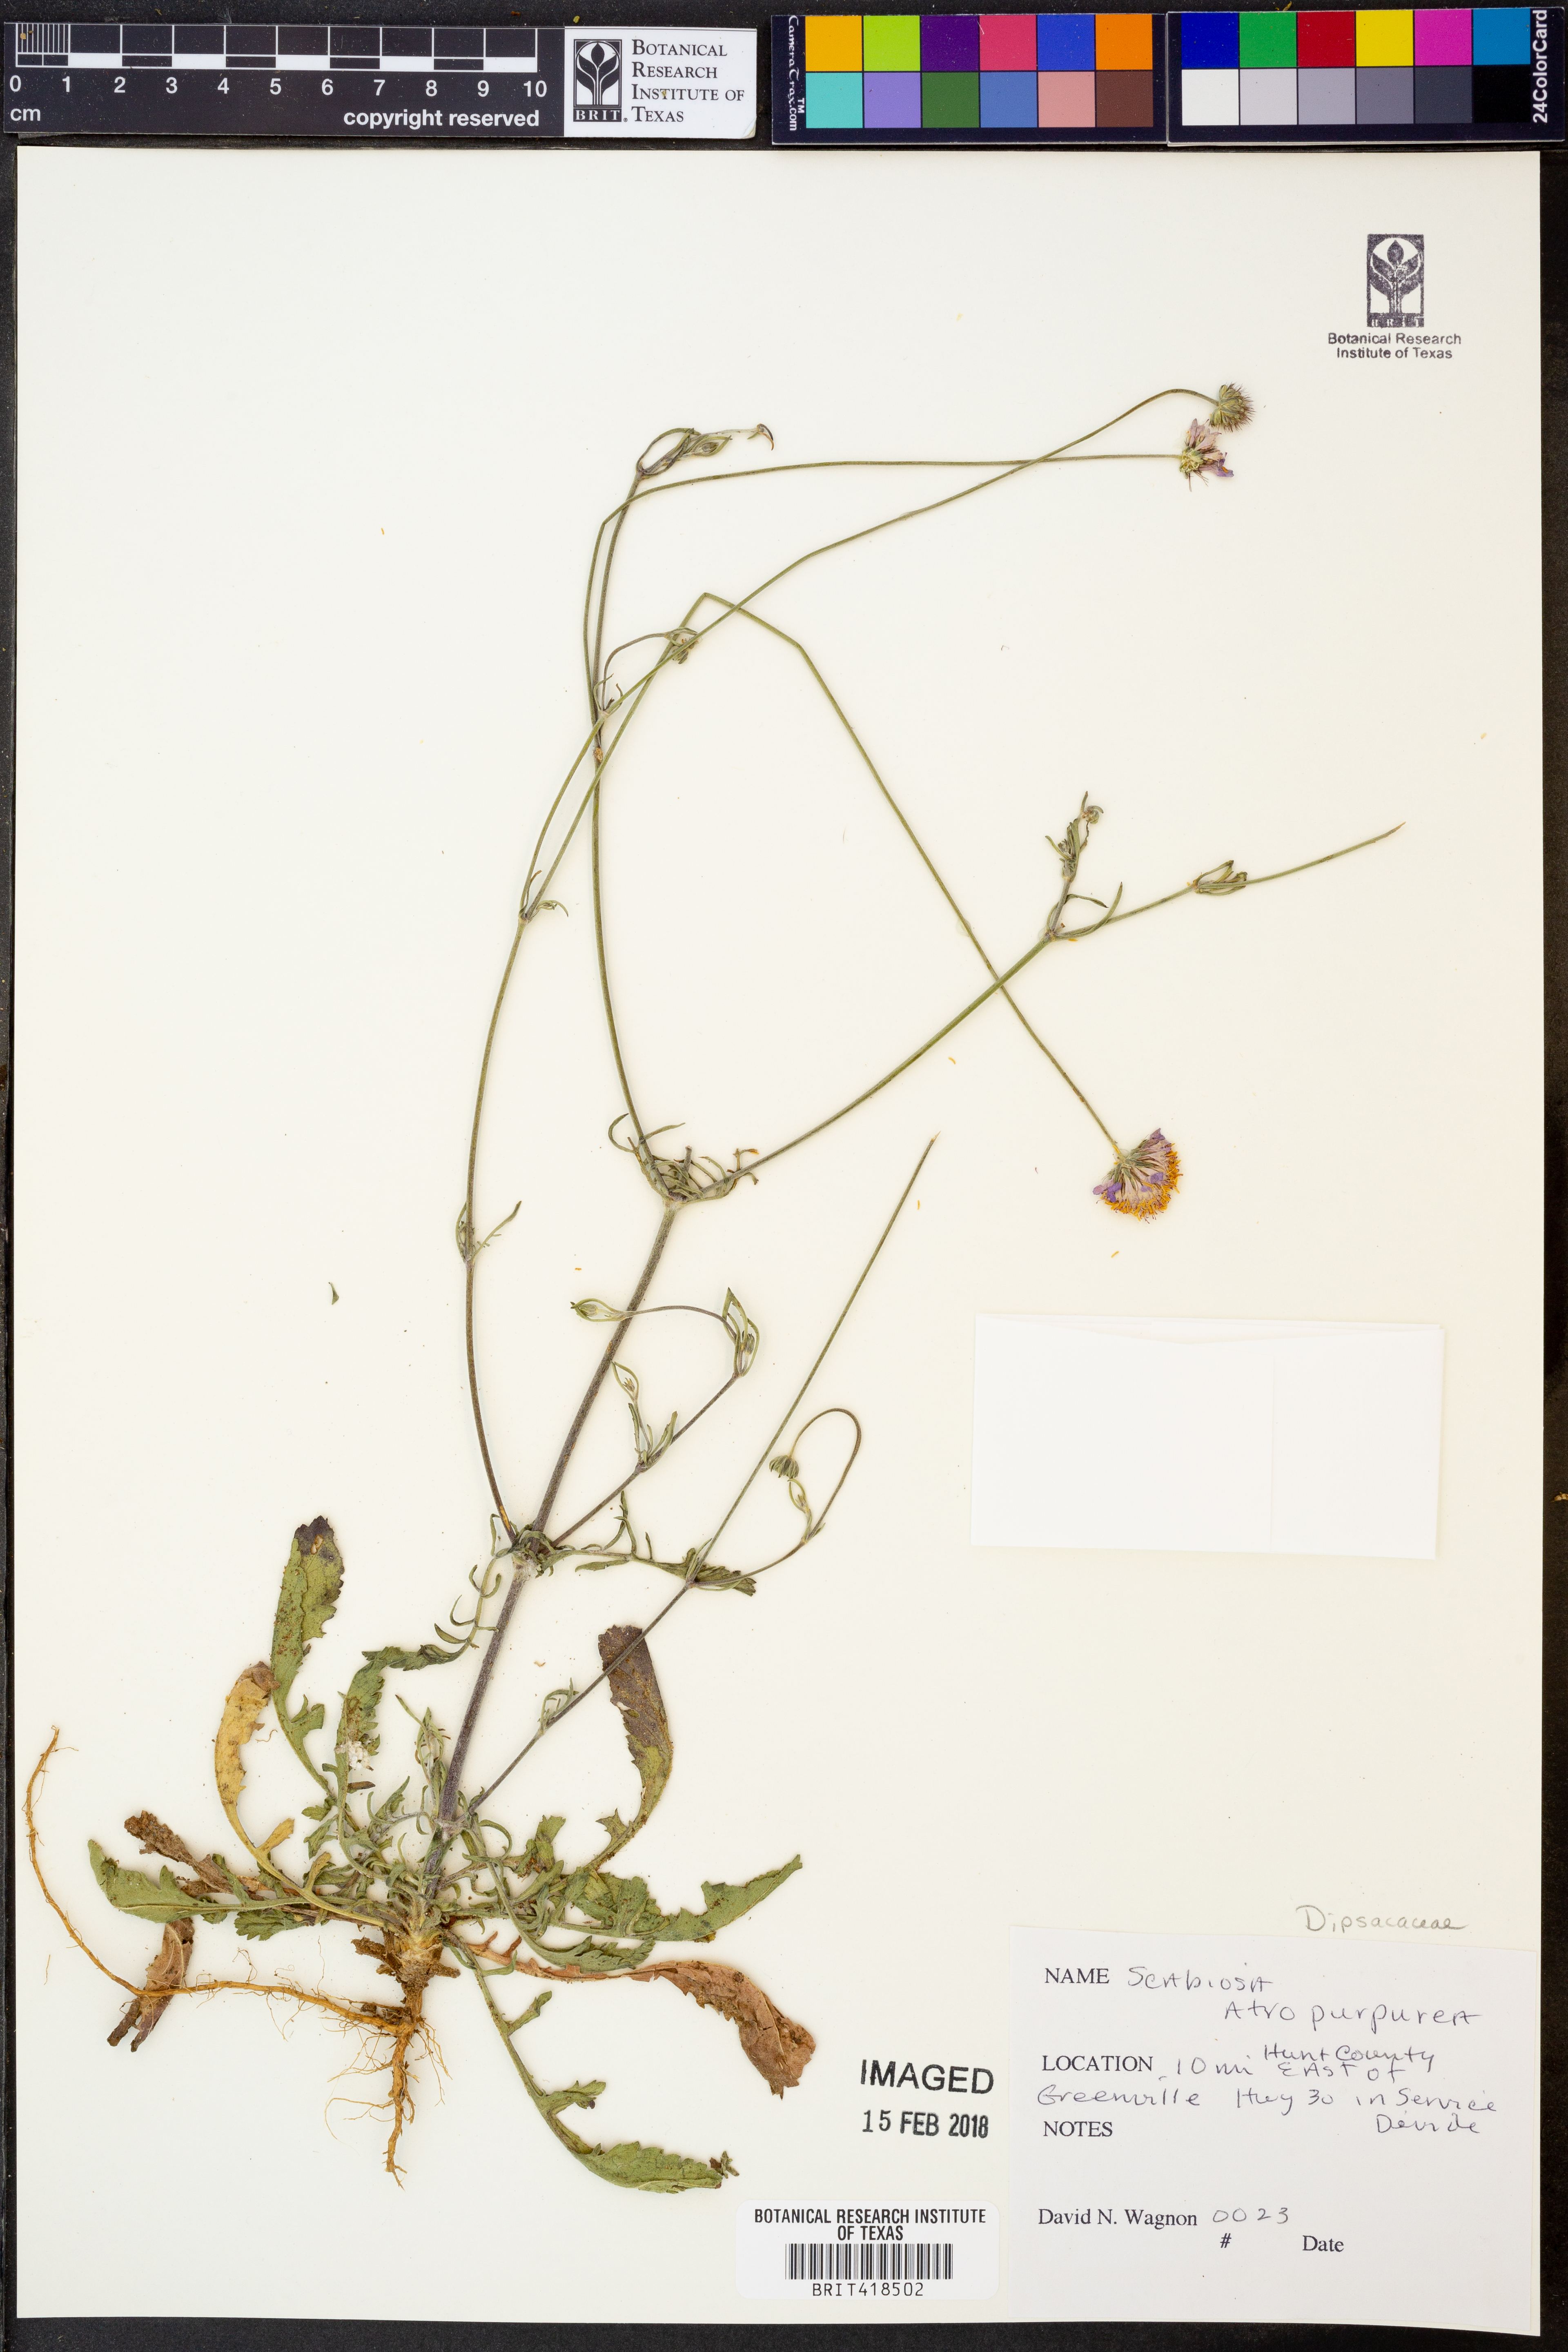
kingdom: Plantae
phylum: Tracheophyta
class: Magnoliopsida
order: Dipsacales
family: Caprifoliaceae
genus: Sixalix
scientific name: Sixalix atropurpurea
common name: Sweet scabious
